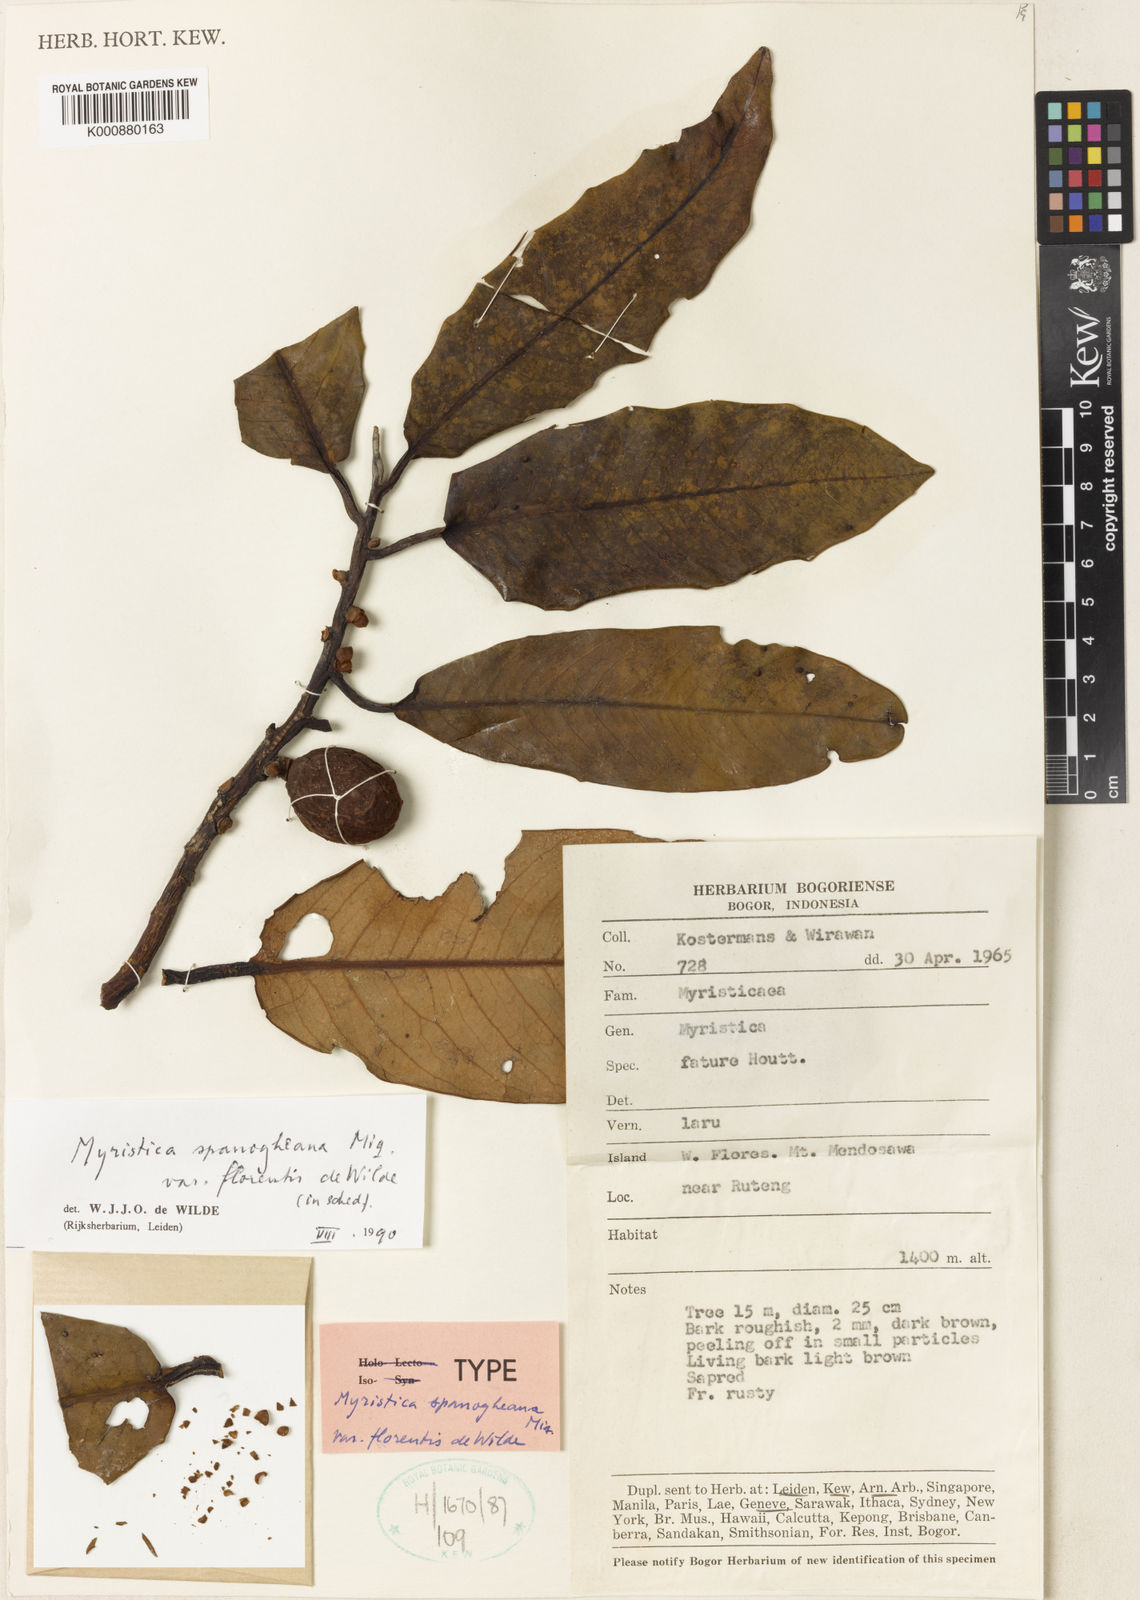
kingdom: Plantae
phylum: Tracheophyta
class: Magnoliopsida
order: Magnoliales
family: Myristicaceae
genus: Myristica
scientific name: Myristica schleinitzii
